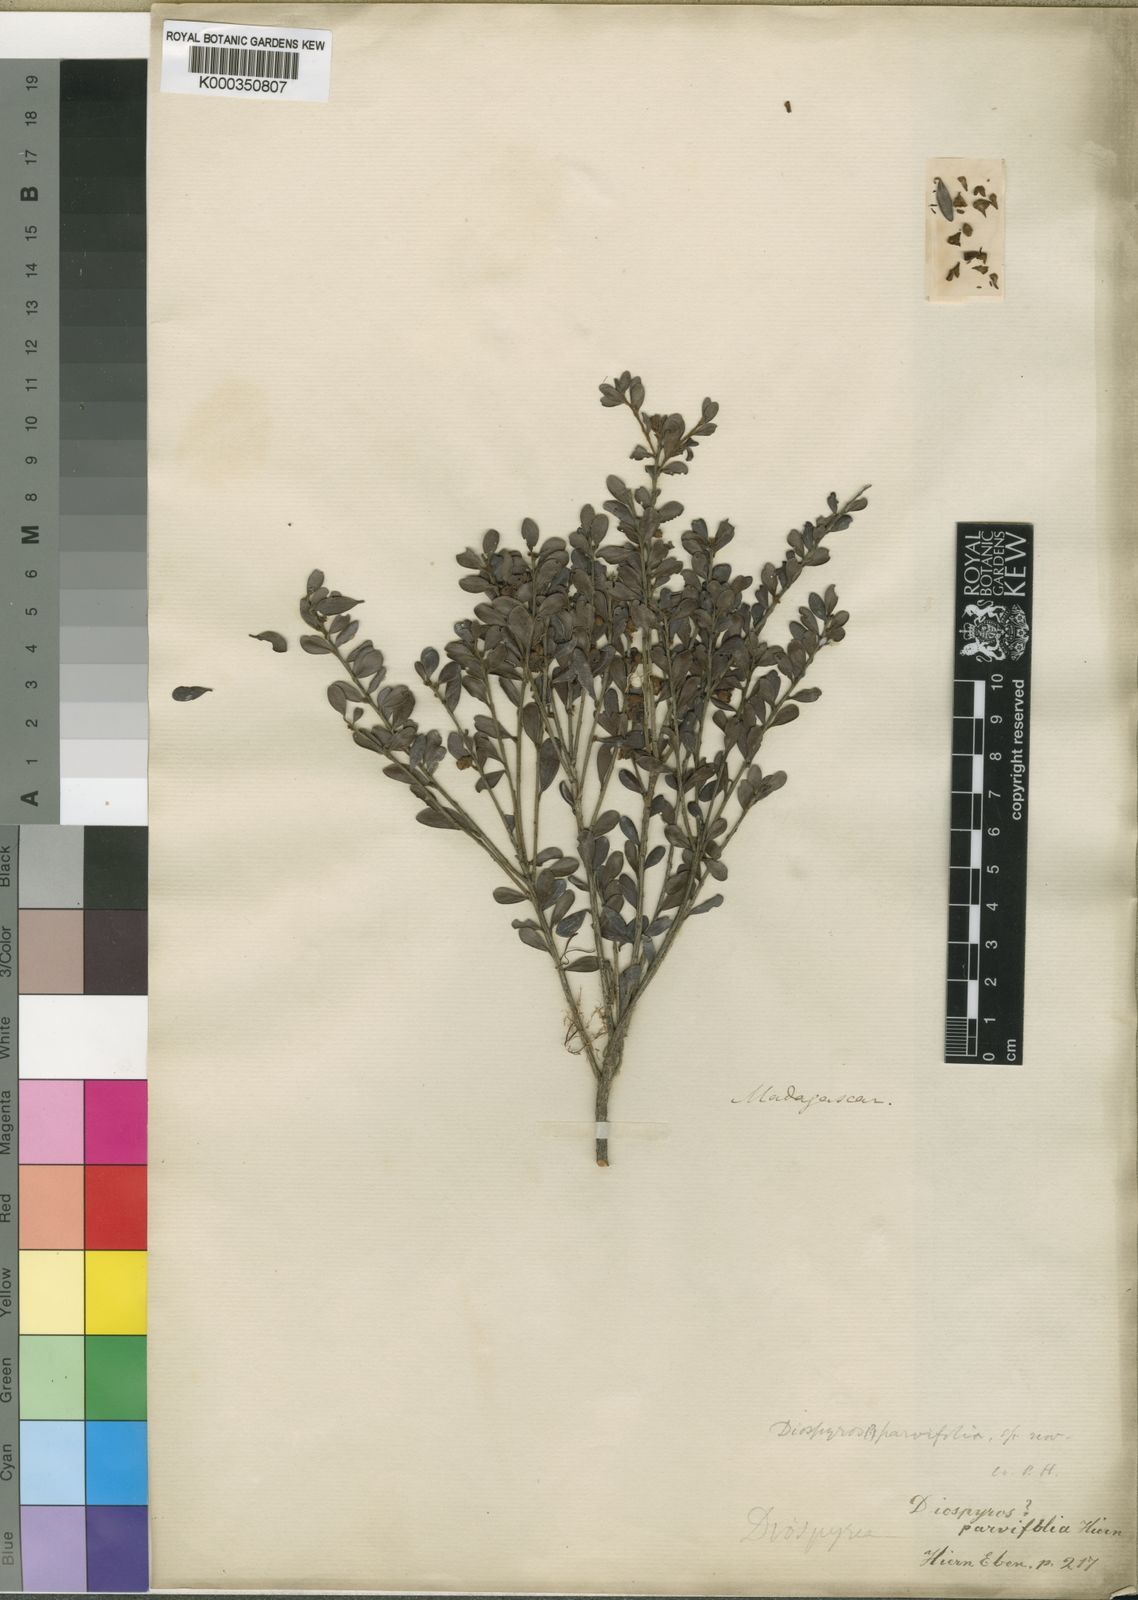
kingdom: Plantae
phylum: Tracheophyta
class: Magnoliopsida
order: Ericales
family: Ebenaceae
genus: Diospyros
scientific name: Diospyros parvifolia
